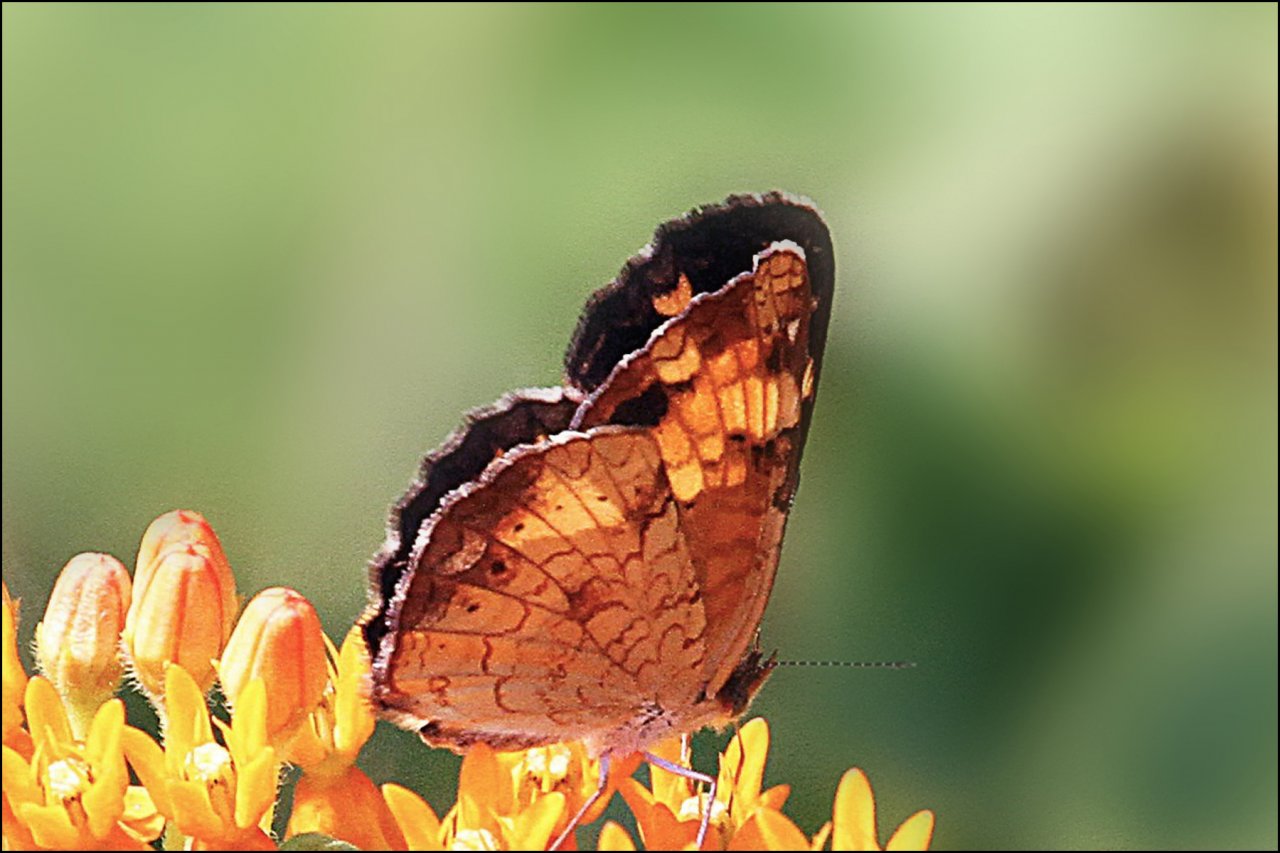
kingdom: Animalia
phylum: Arthropoda
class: Insecta
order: Lepidoptera
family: Nymphalidae
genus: Phyciodes
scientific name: Phyciodes tharos
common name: Pearl Crescent
